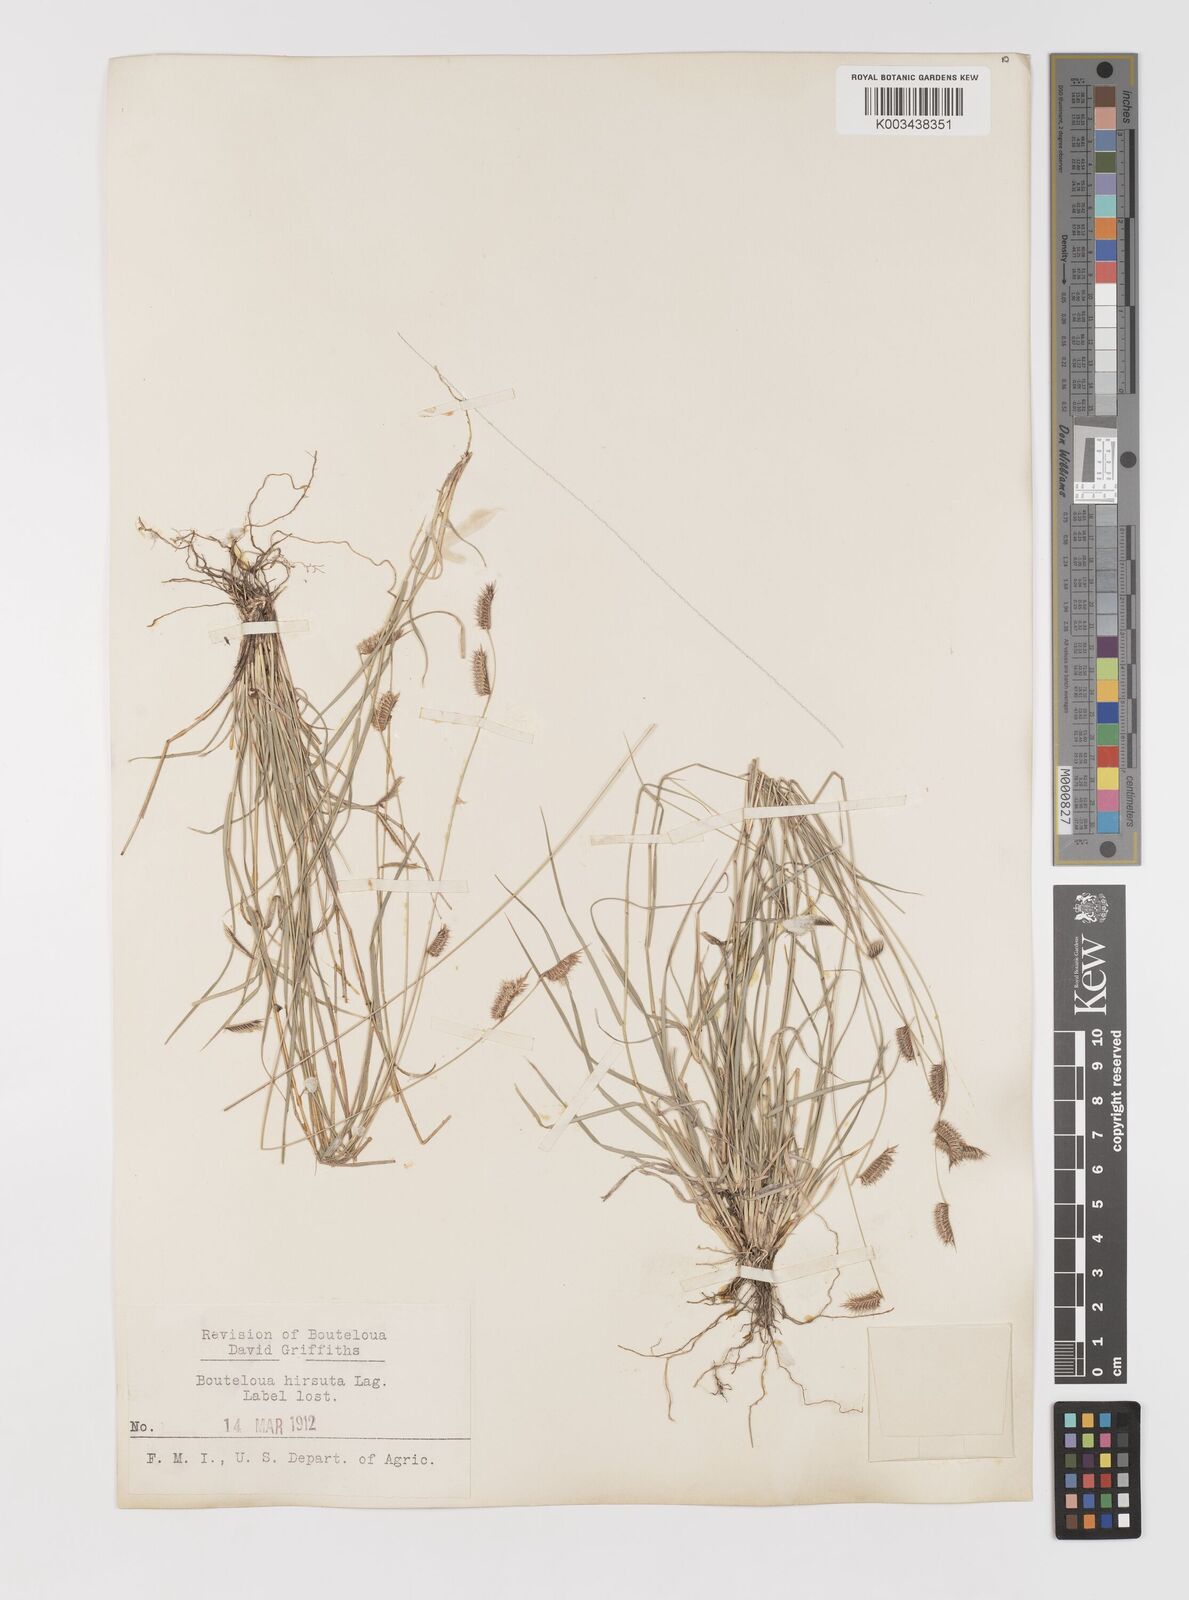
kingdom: Plantae
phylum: Tracheophyta
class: Liliopsida
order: Poales
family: Poaceae
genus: Bouteloua
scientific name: Bouteloua hirsuta
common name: Hairy grama
